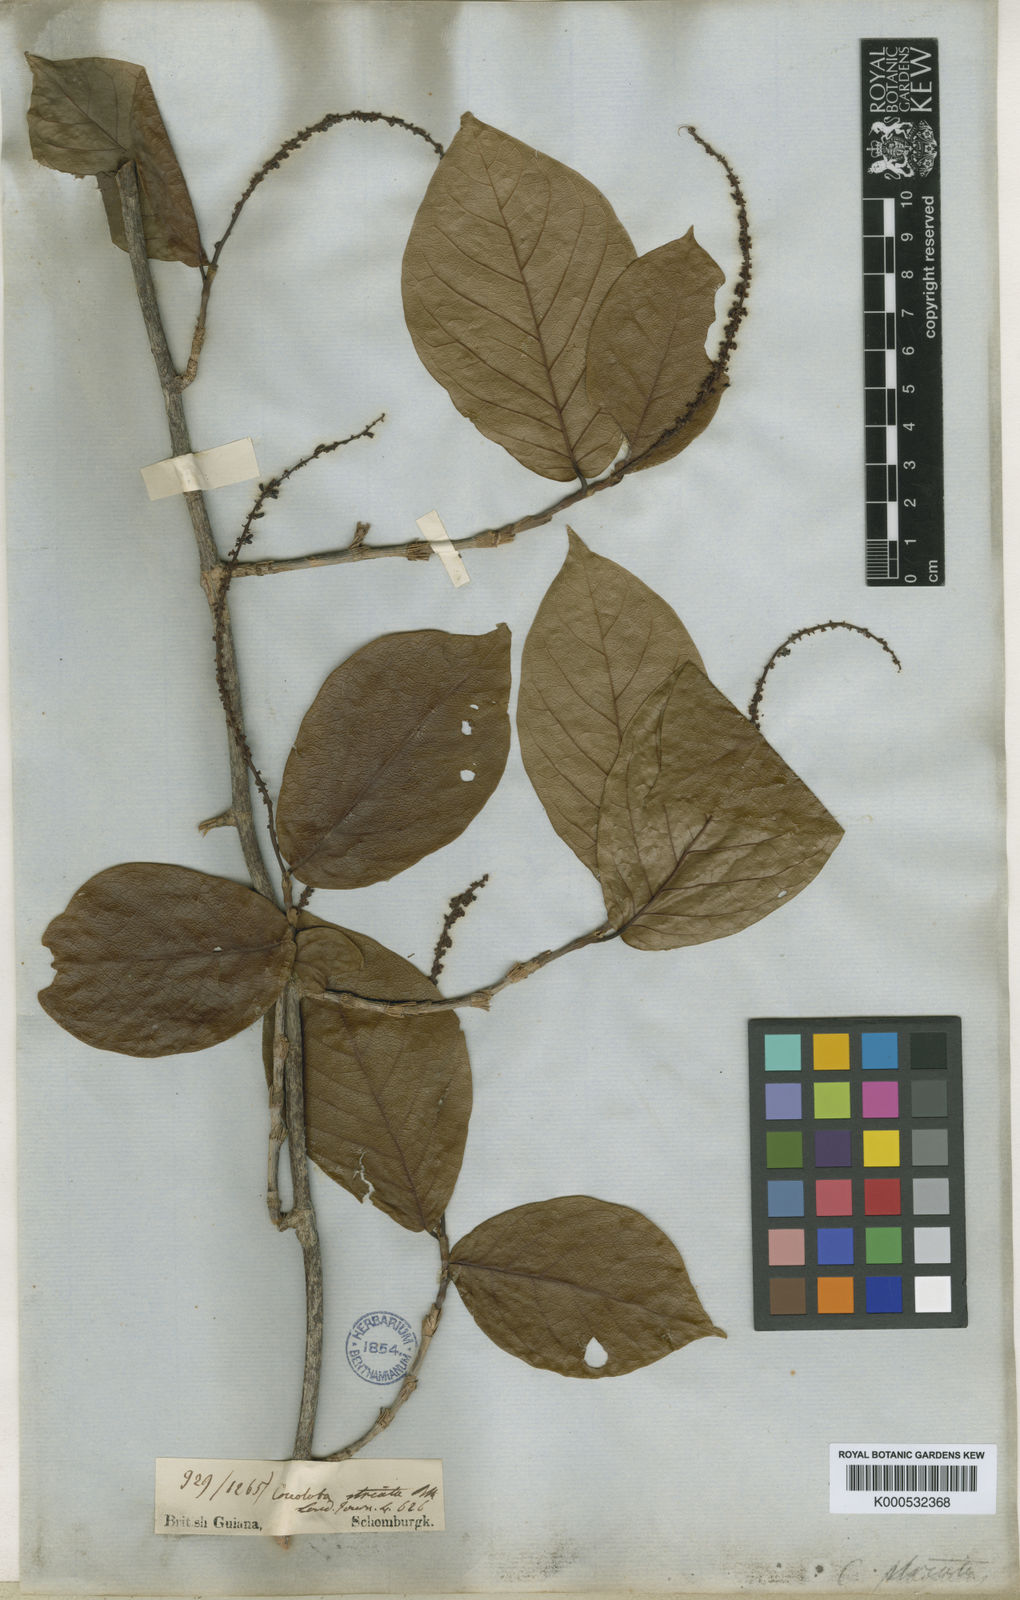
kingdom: Plantae
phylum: Tracheophyta
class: Magnoliopsida
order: Caryophyllales
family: Polygonaceae
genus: Coccoloba
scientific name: Coccoloba striata
